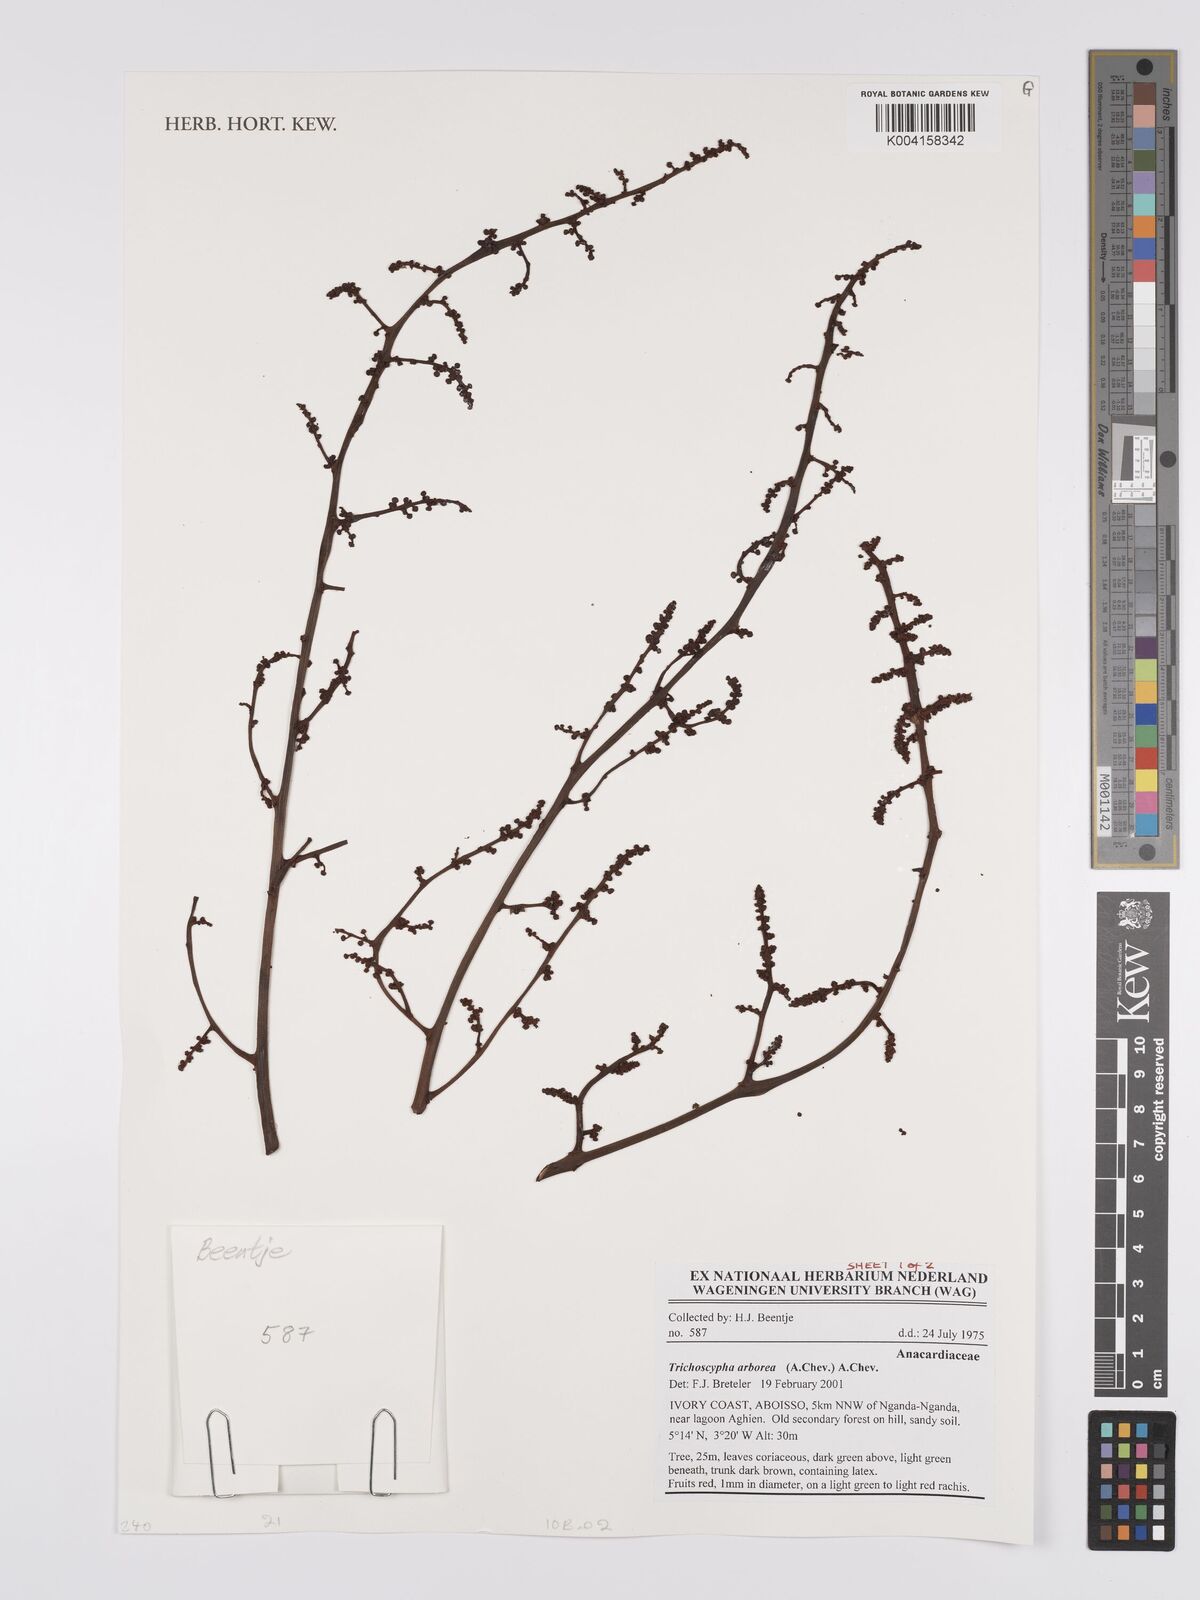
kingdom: Plantae
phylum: Tracheophyta
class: Magnoliopsida
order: Sapindales
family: Anacardiaceae
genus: Trichoscypha
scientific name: Trichoscypha arborea
